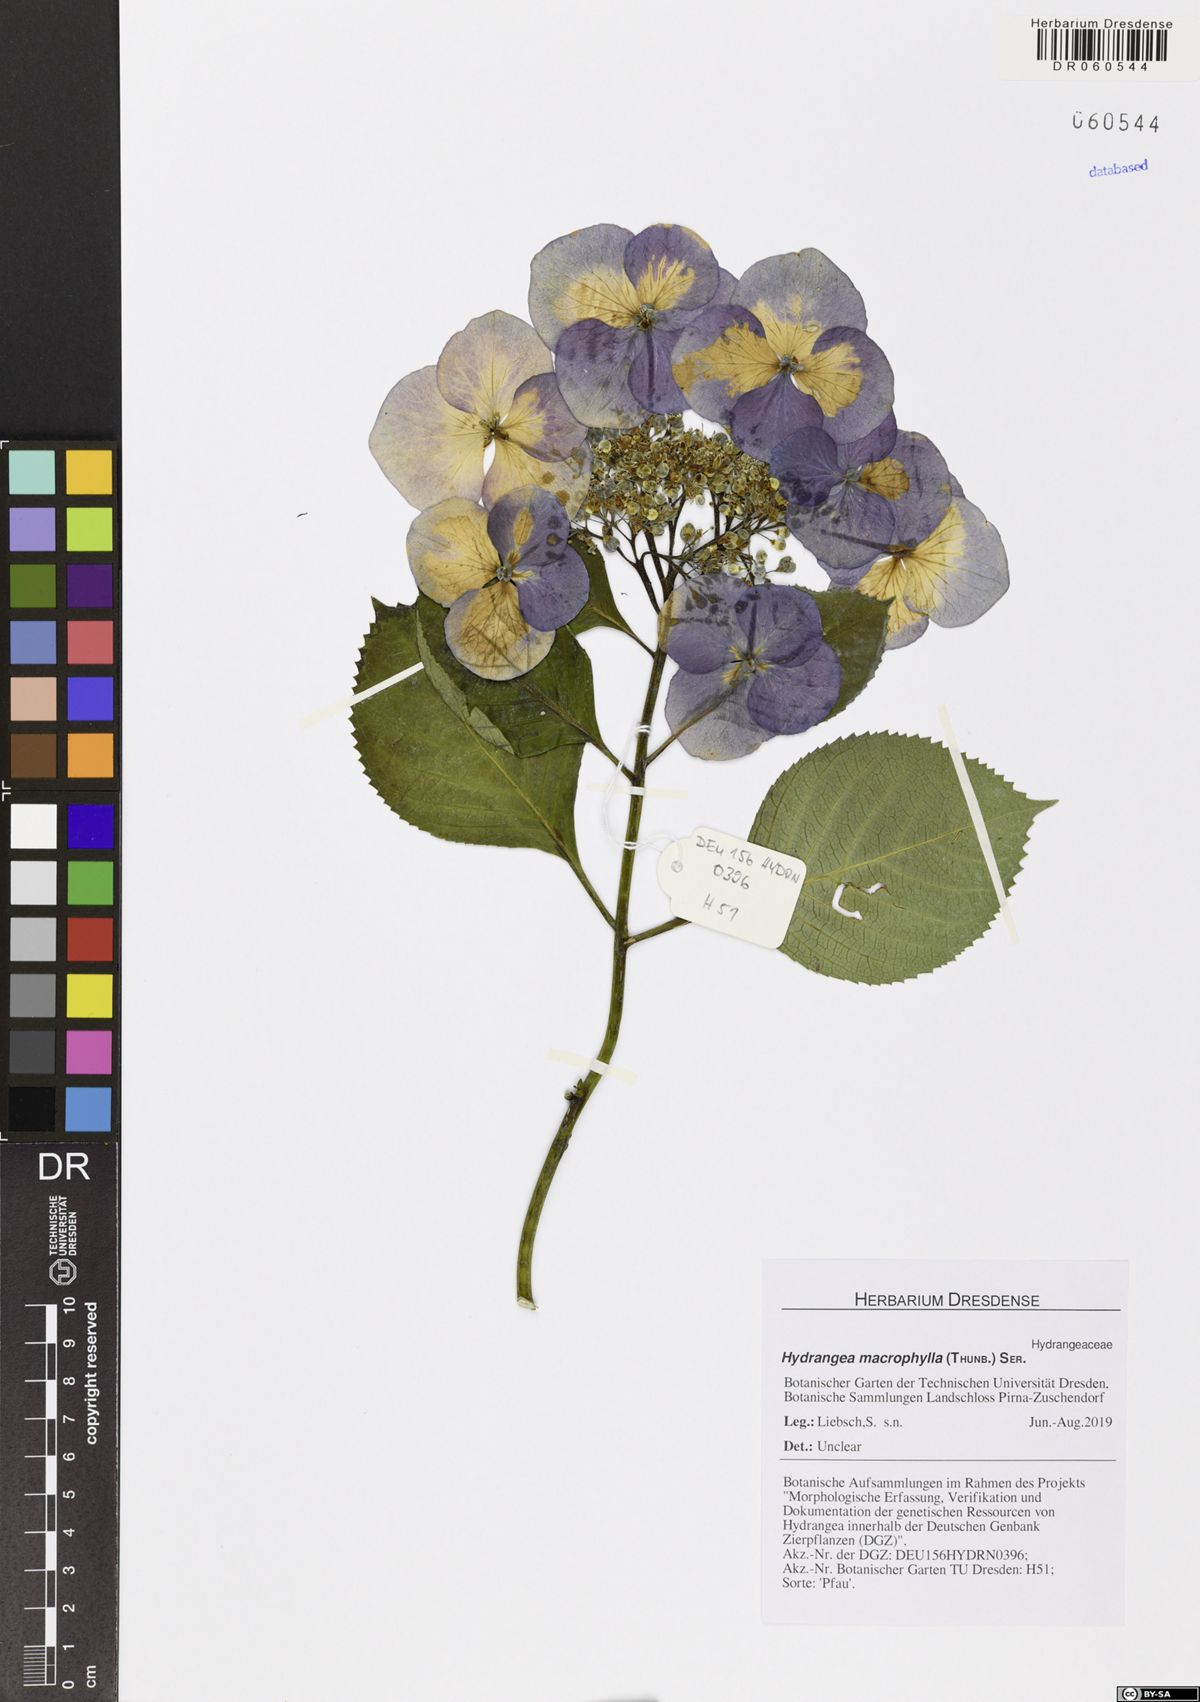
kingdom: Plantae
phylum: Tracheophyta
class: Magnoliopsida
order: Cornales
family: Hydrangeaceae
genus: Hydrangea
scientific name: Hydrangea macrophylla
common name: Hydrangea
